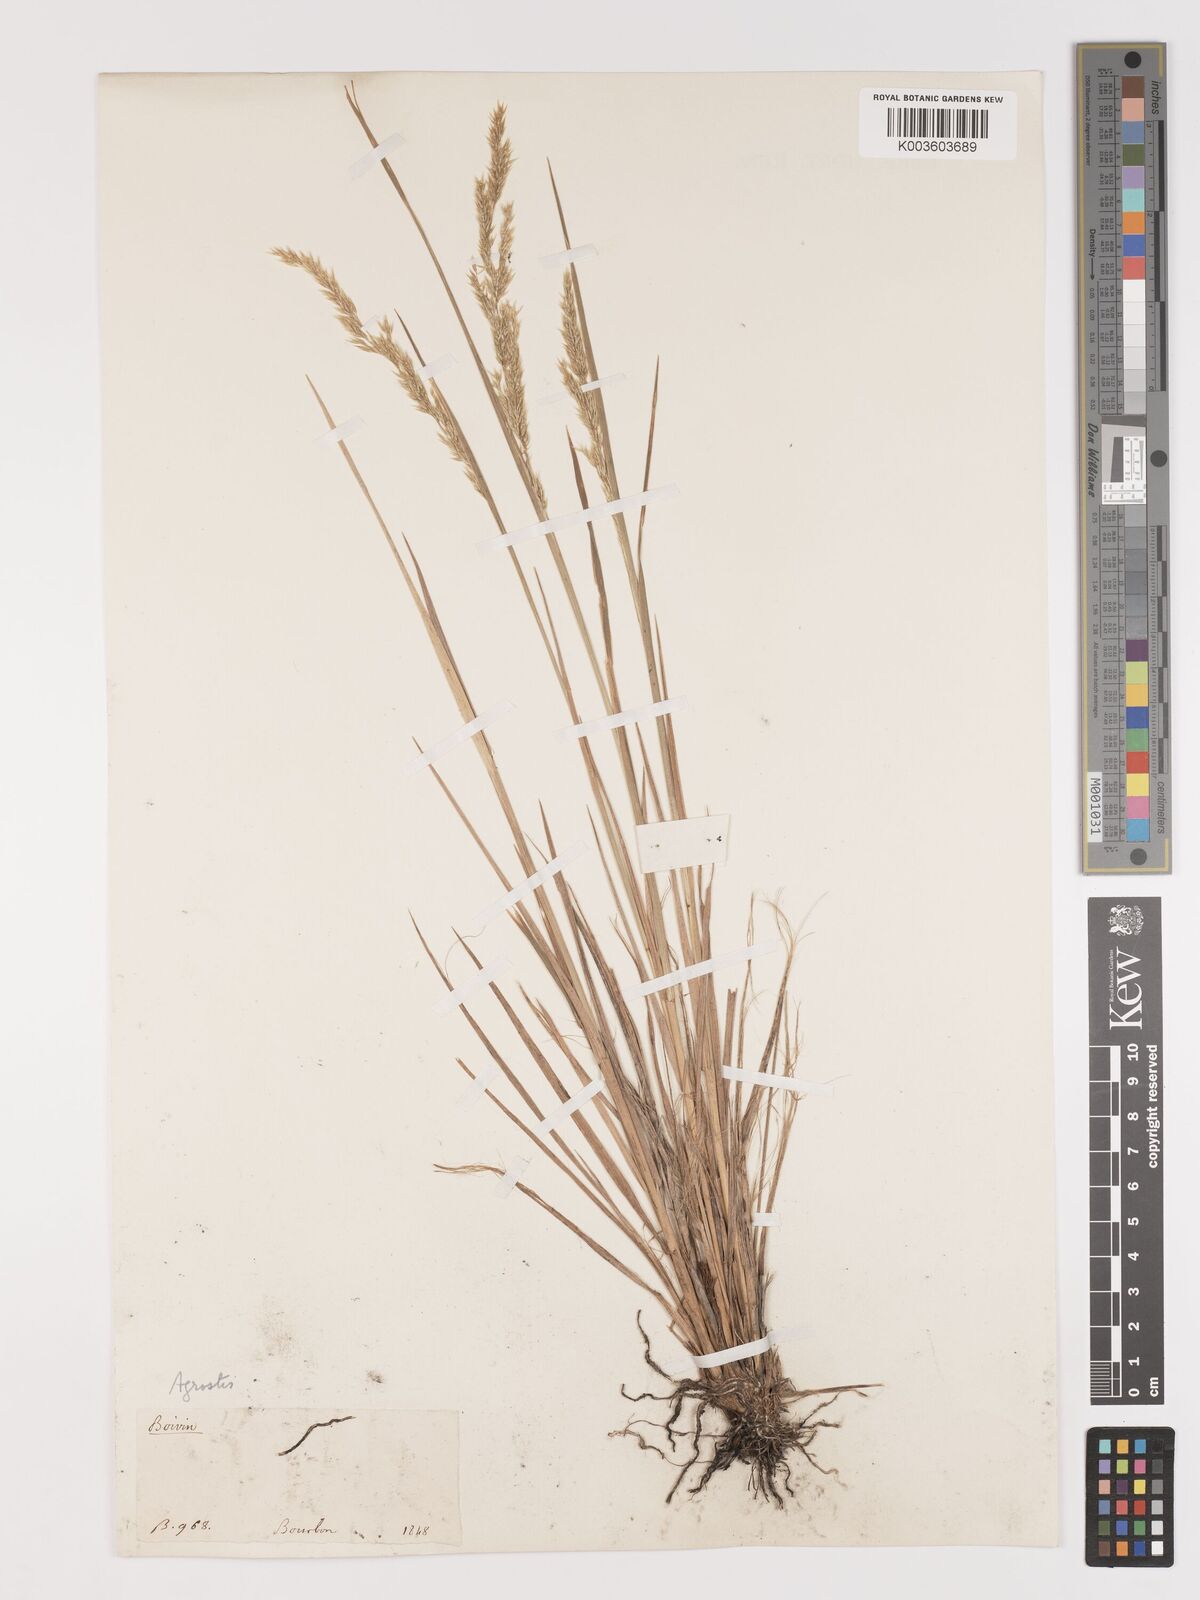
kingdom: Plantae
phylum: Tracheophyta
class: Liliopsida
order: Poales
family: Poaceae
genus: Agrostis
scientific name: Agrostis salaziensis
